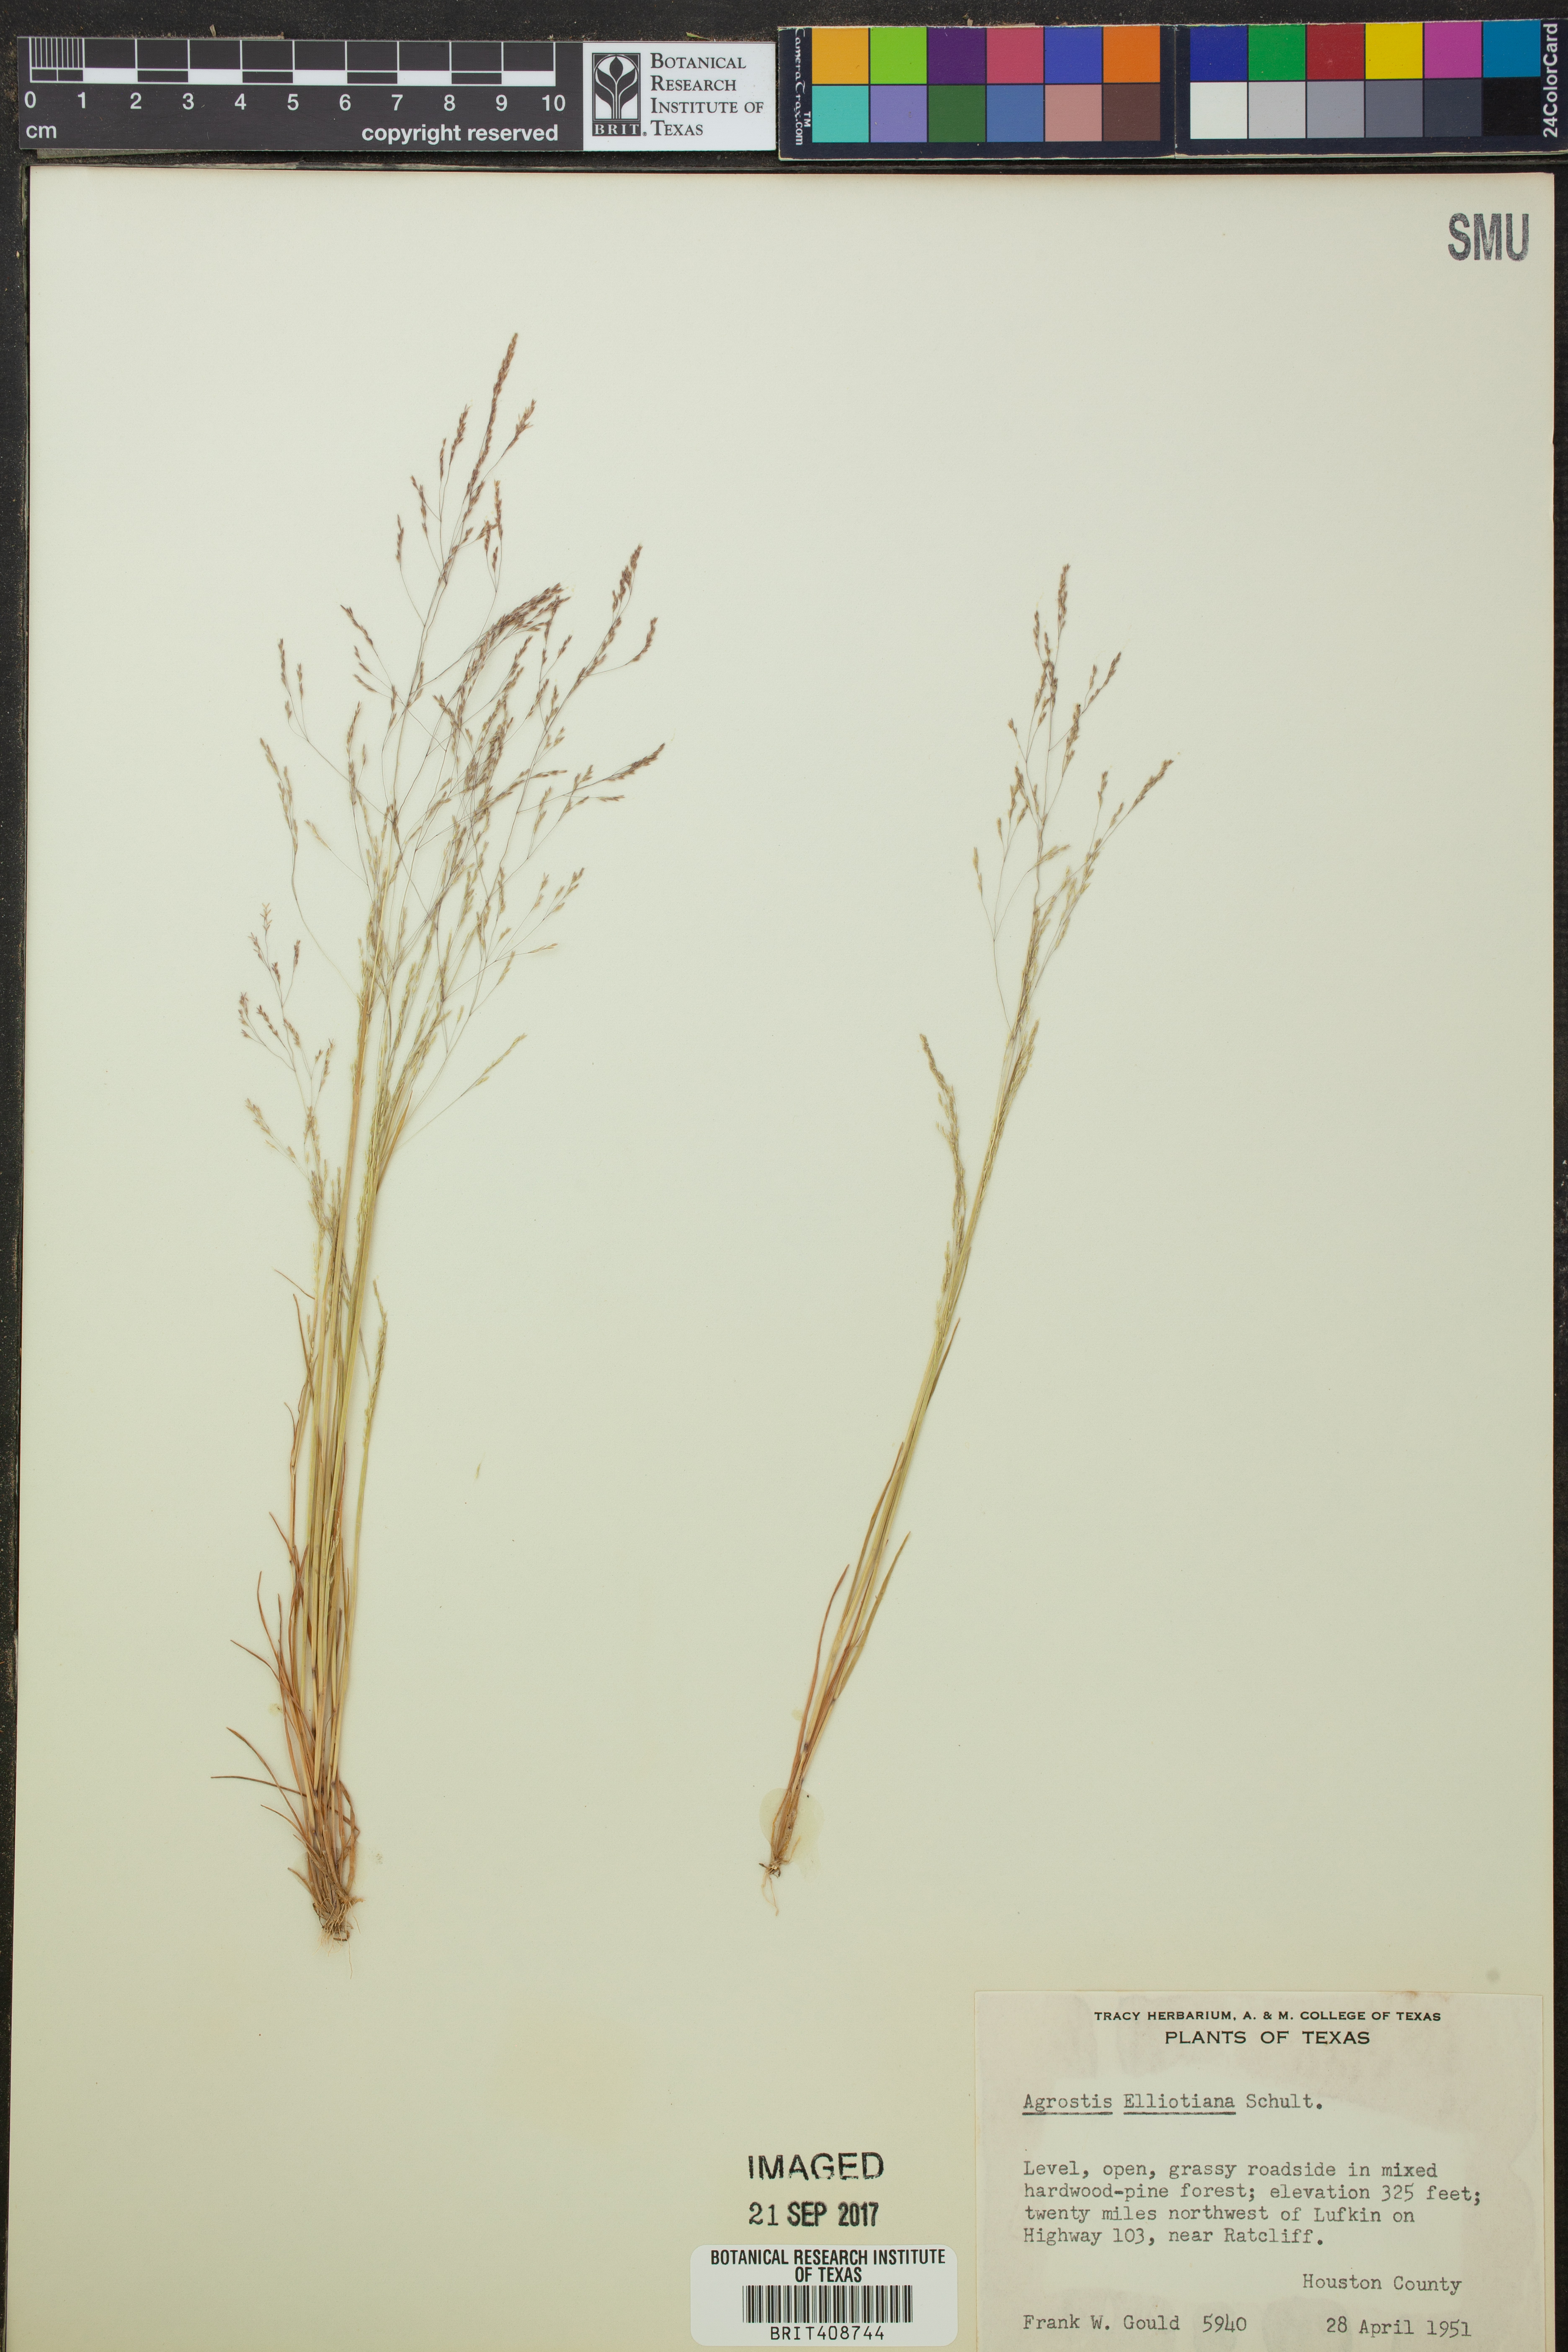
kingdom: Plantae
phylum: Tracheophyta
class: Liliopsida
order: Poales
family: Poaceae
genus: Agrostis
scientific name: Agrostis elliottiana
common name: Elliott's bent
